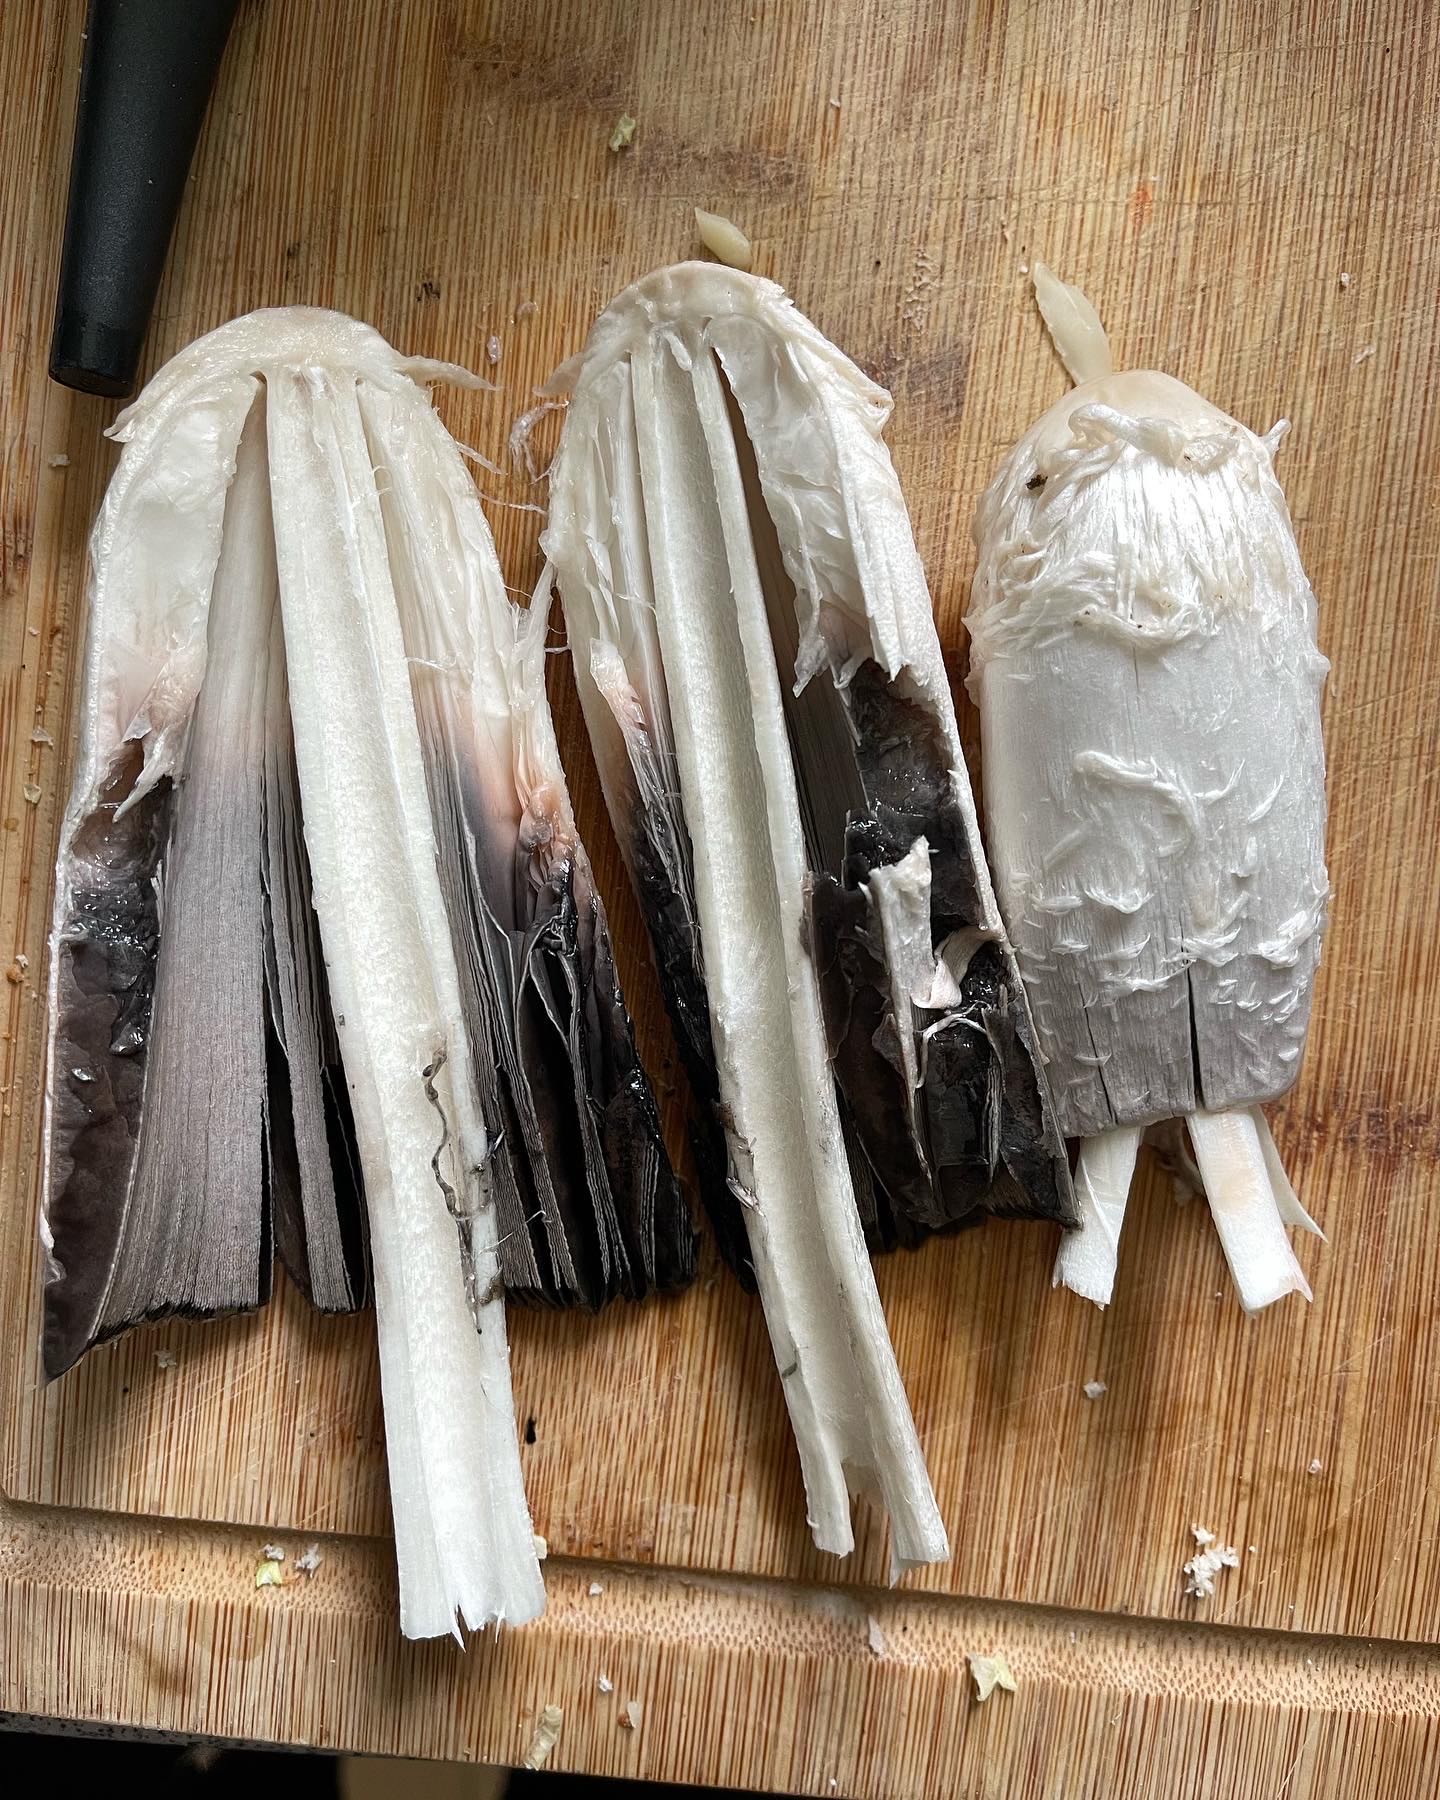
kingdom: Fungi
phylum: Basidiomycota
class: Agaricomycetes
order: Agaricales
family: Agaricaceae
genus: Coprinus
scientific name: Coprinus comatus
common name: stor parykhat
